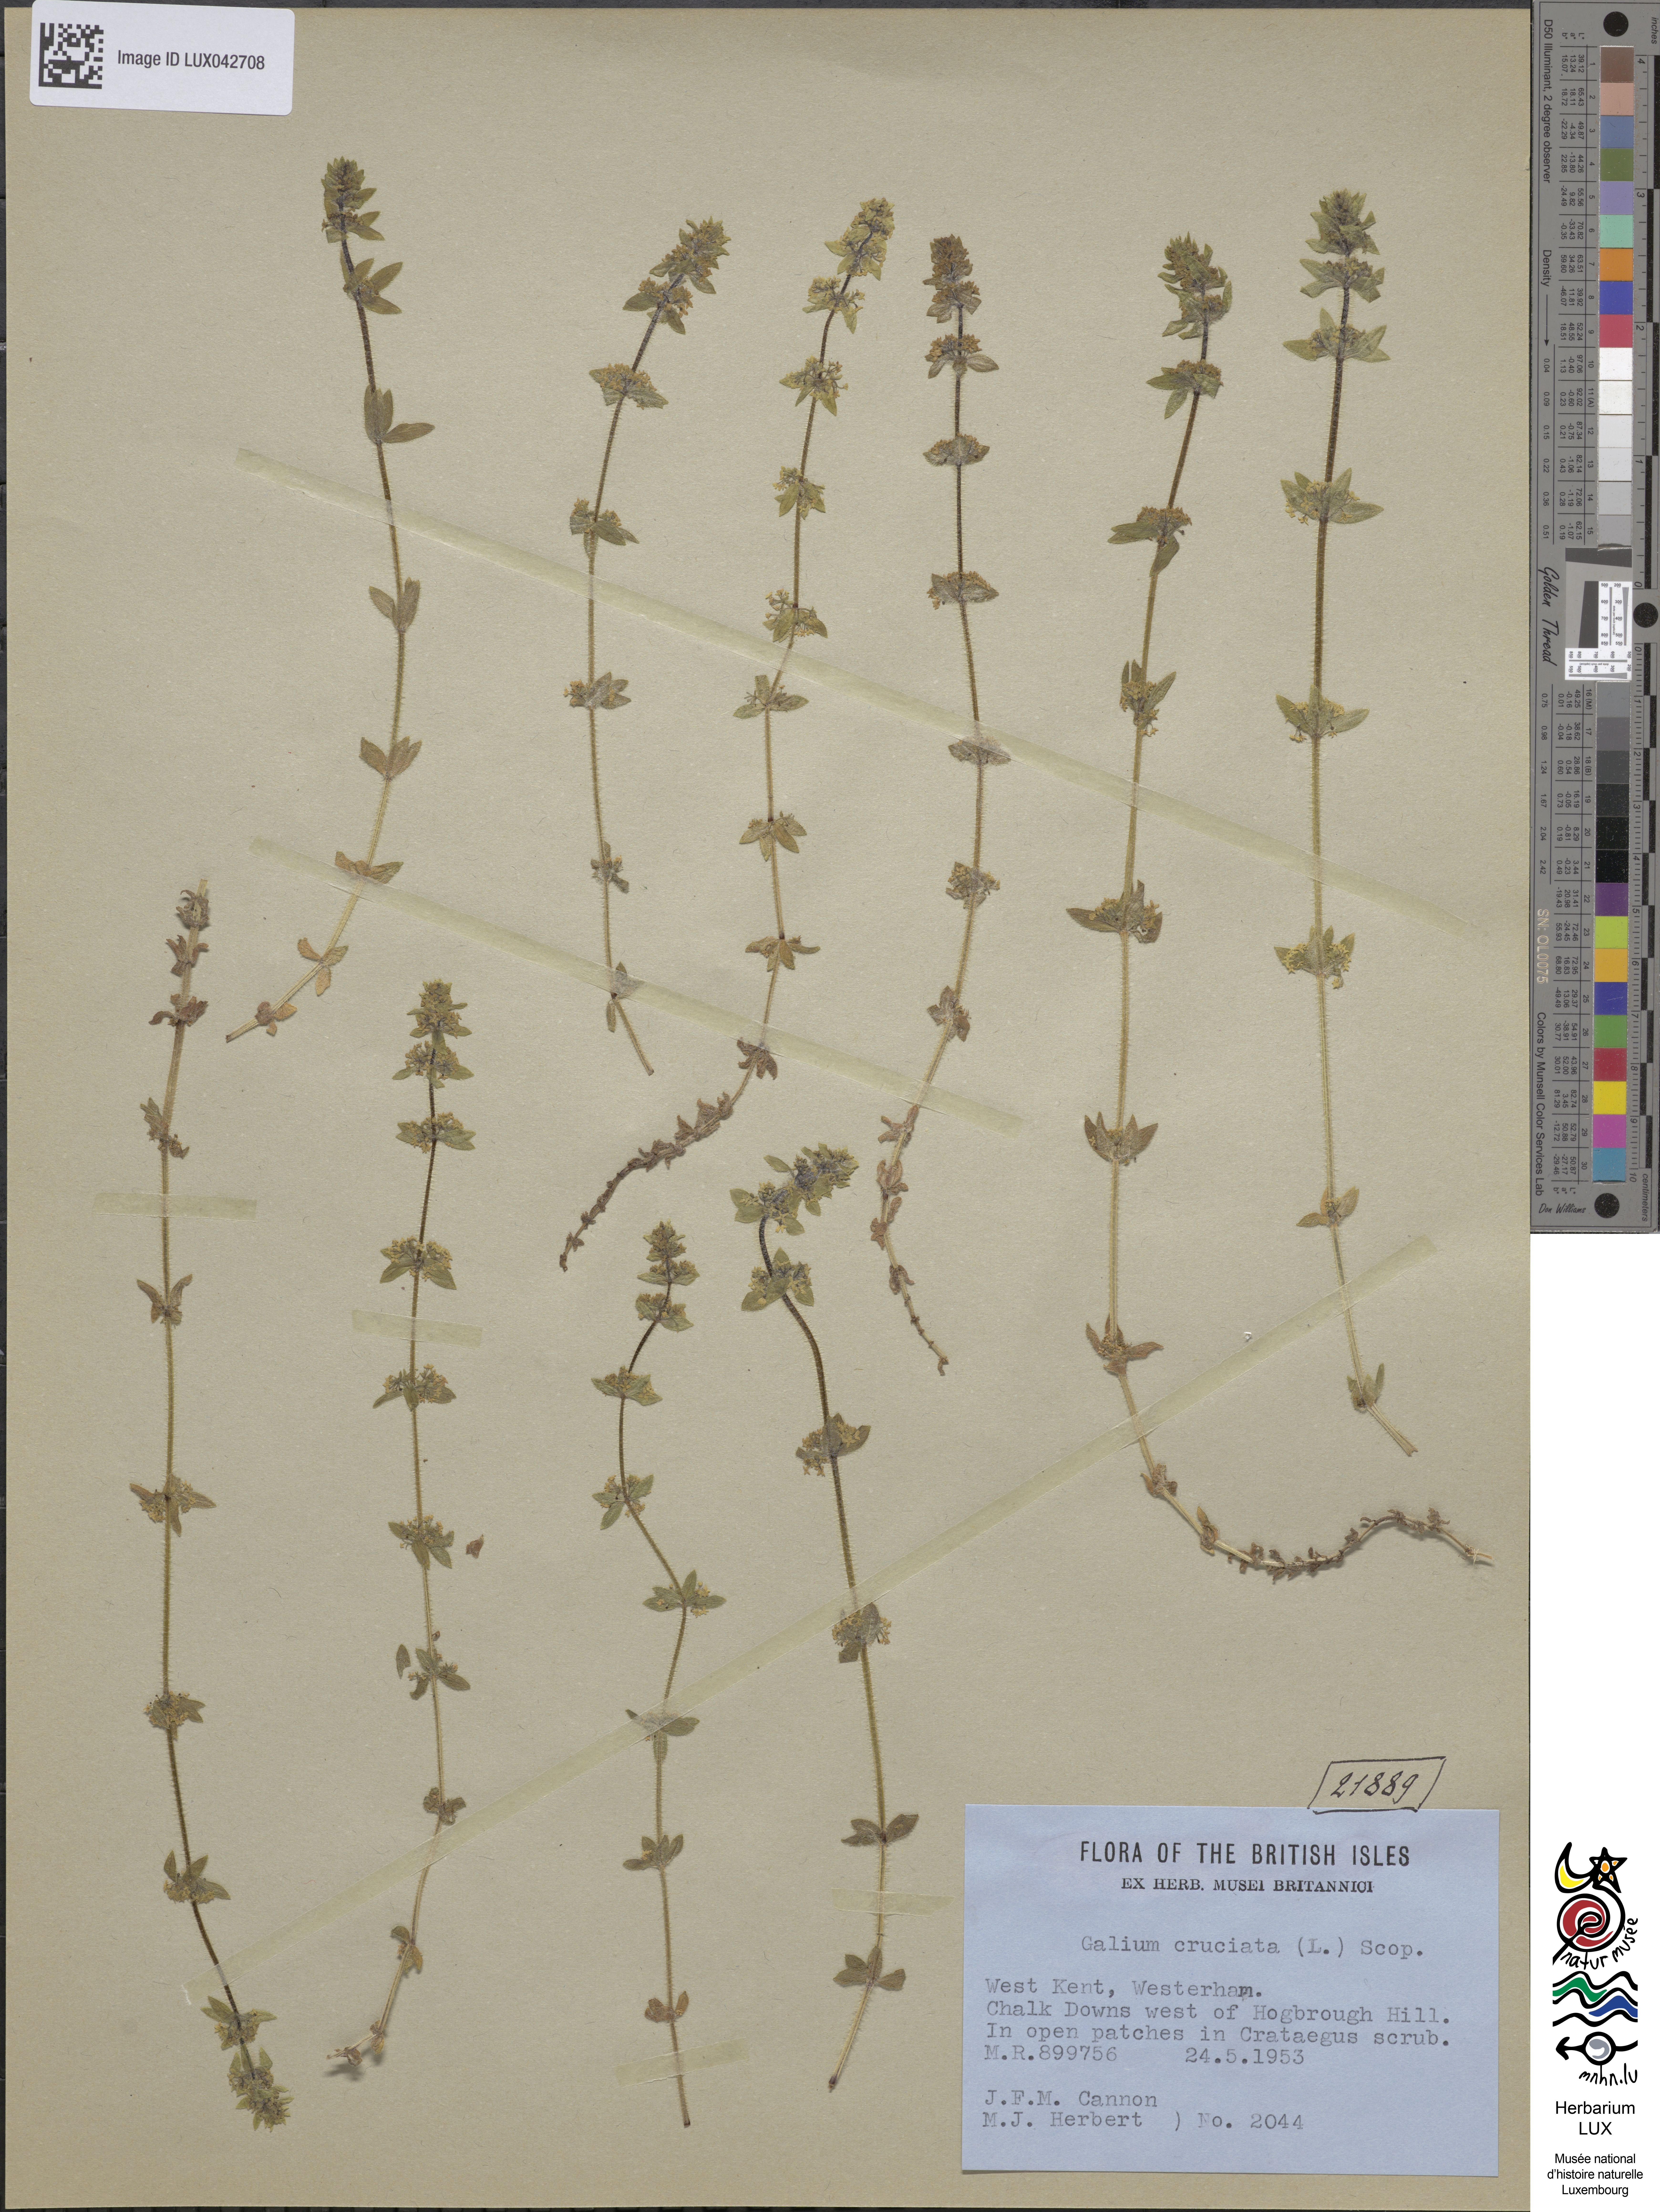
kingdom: Plantae
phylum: Tracheophyta
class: Magnoliopsida
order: Gentianales
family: Rubiaceae
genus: Cruciata
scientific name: Cruciata laevipes
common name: Crosswort
